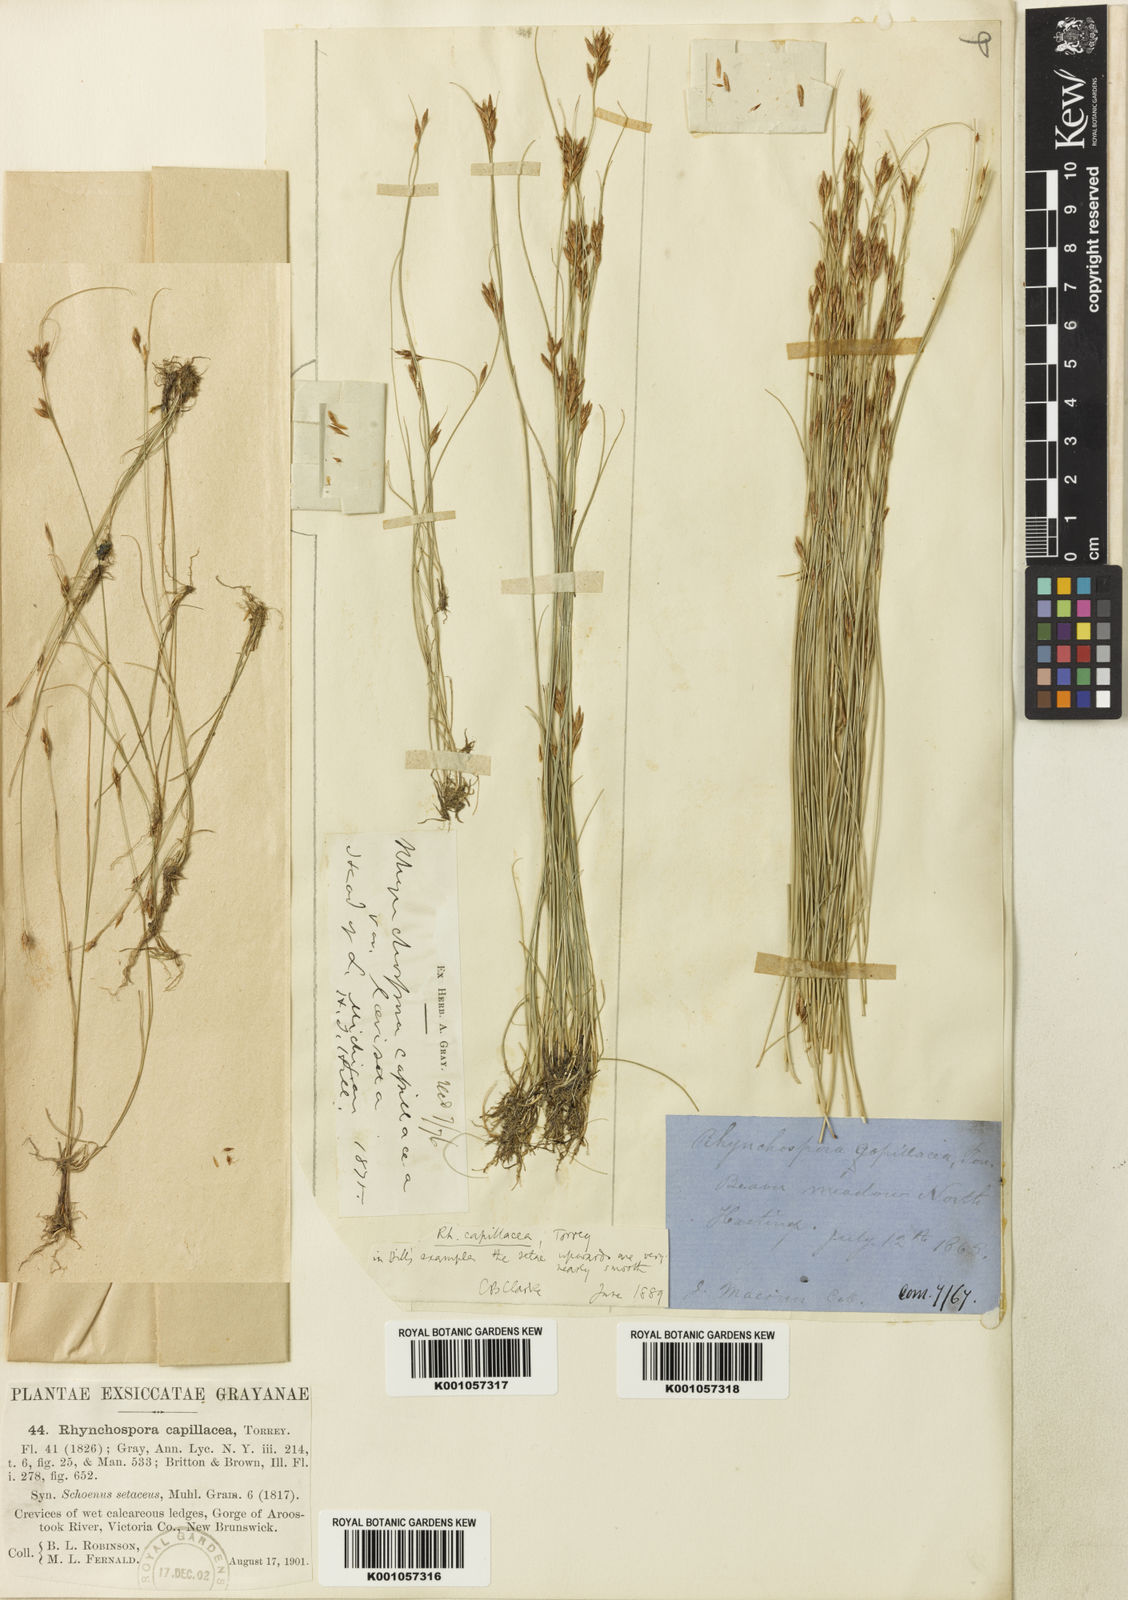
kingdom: Plantae
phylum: Tracheophyta
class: Liliopsida
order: Poales
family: Cyperaceae
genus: Rhynchospora
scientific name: Rhynchospora capillacea
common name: Capillary beakrush
